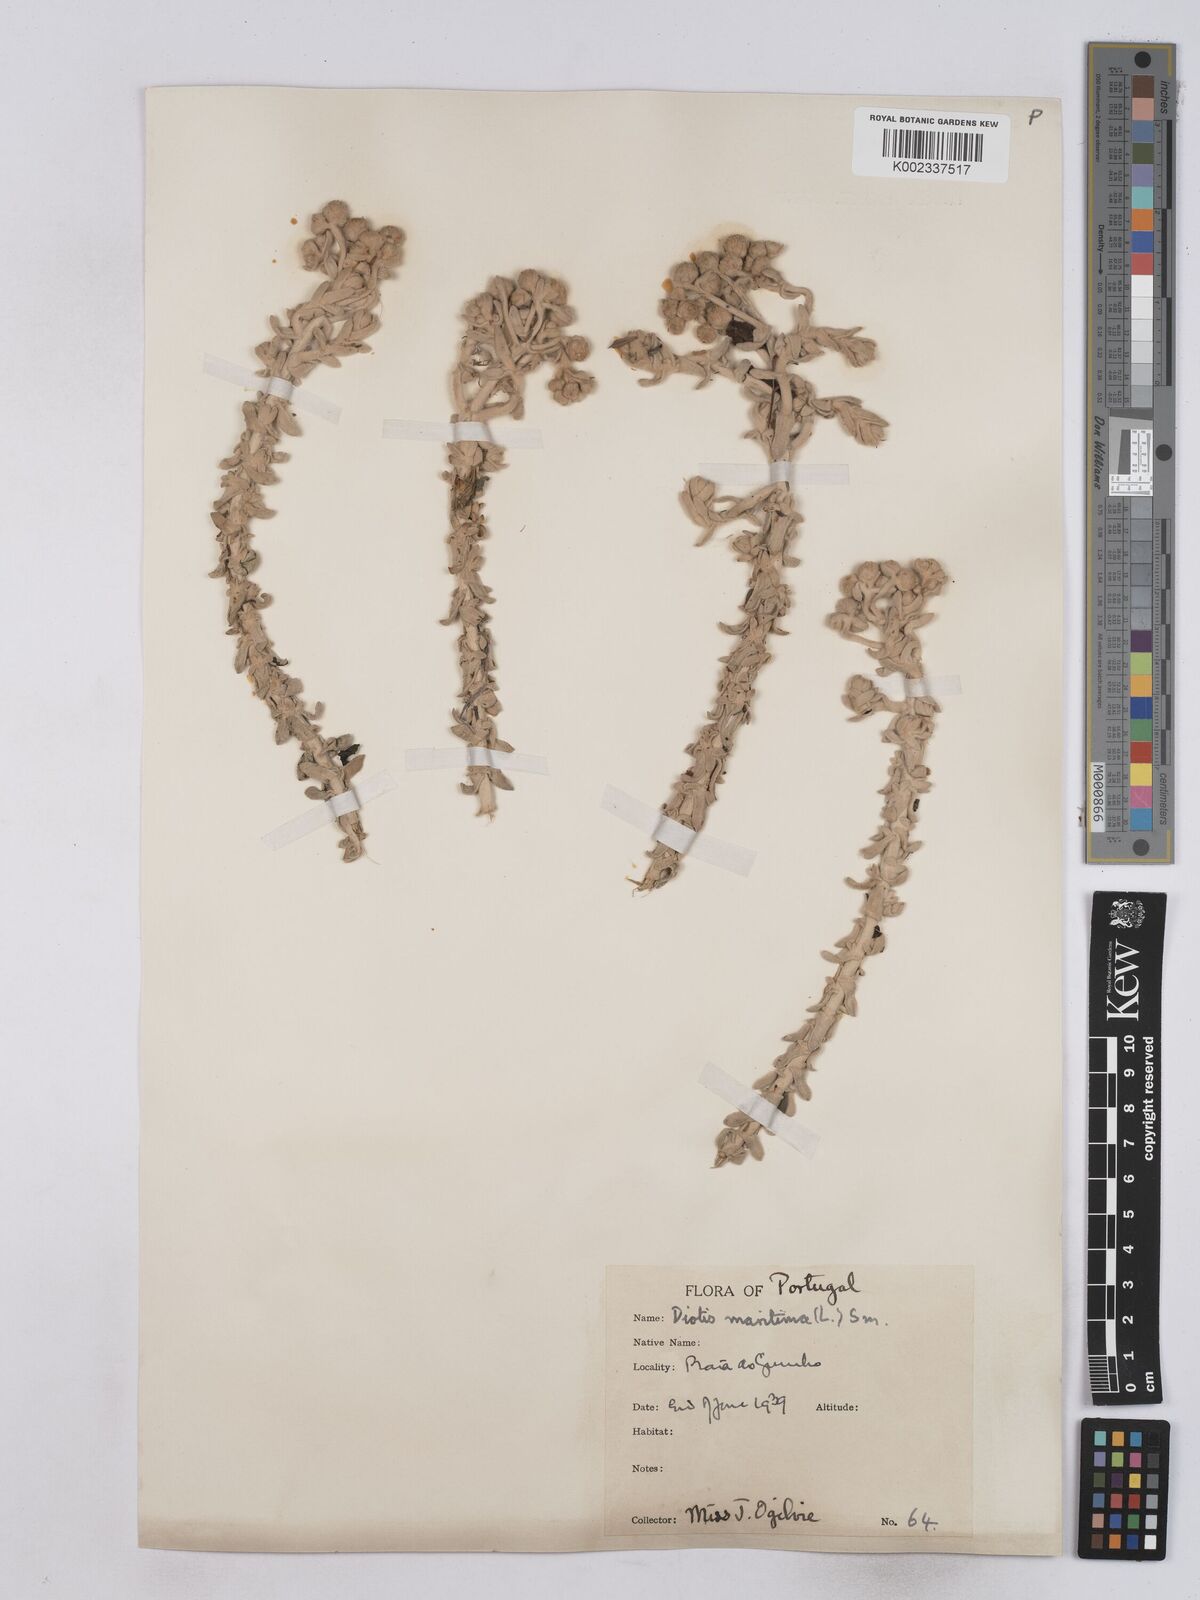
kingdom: Plantae
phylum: Tracheophyta
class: Magnoliopsida
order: Asterales
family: Asteraceae
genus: Achillea
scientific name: Achillea maritima
